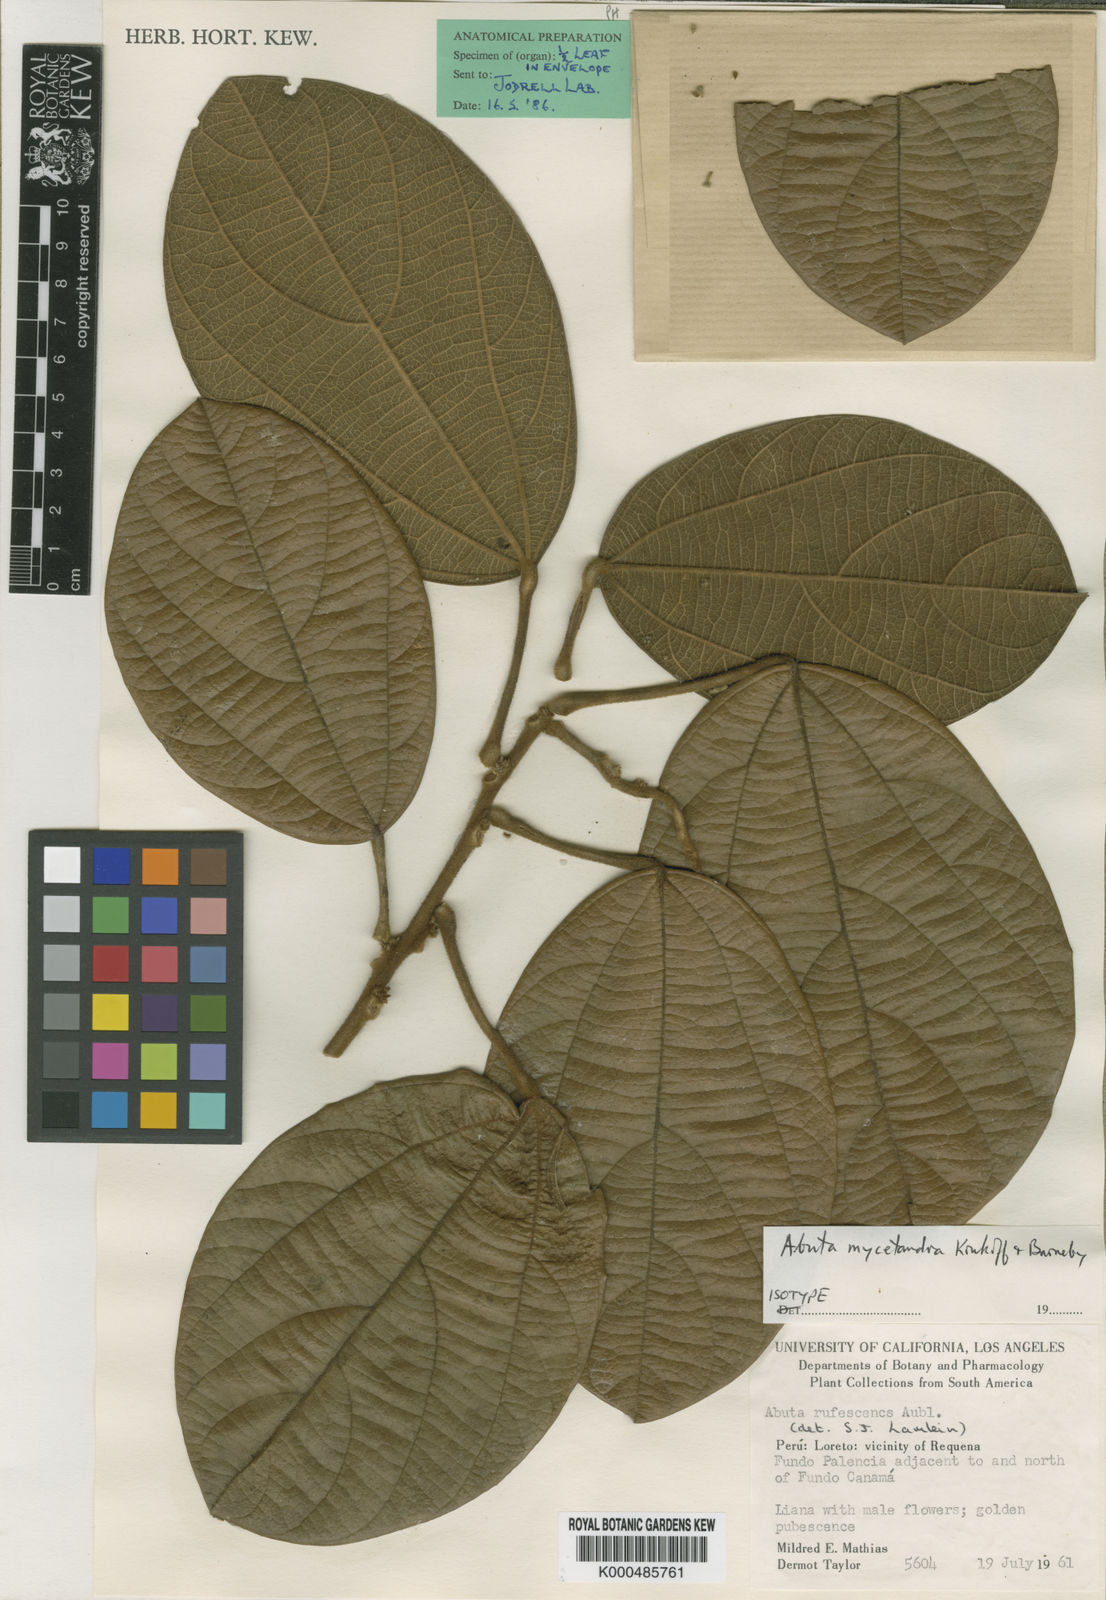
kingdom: Plantae
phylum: Tracheophyta
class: Magnoliopsida
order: Ranunculales
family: Menispermaceae
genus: Abuta
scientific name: Abuta mycetandra
